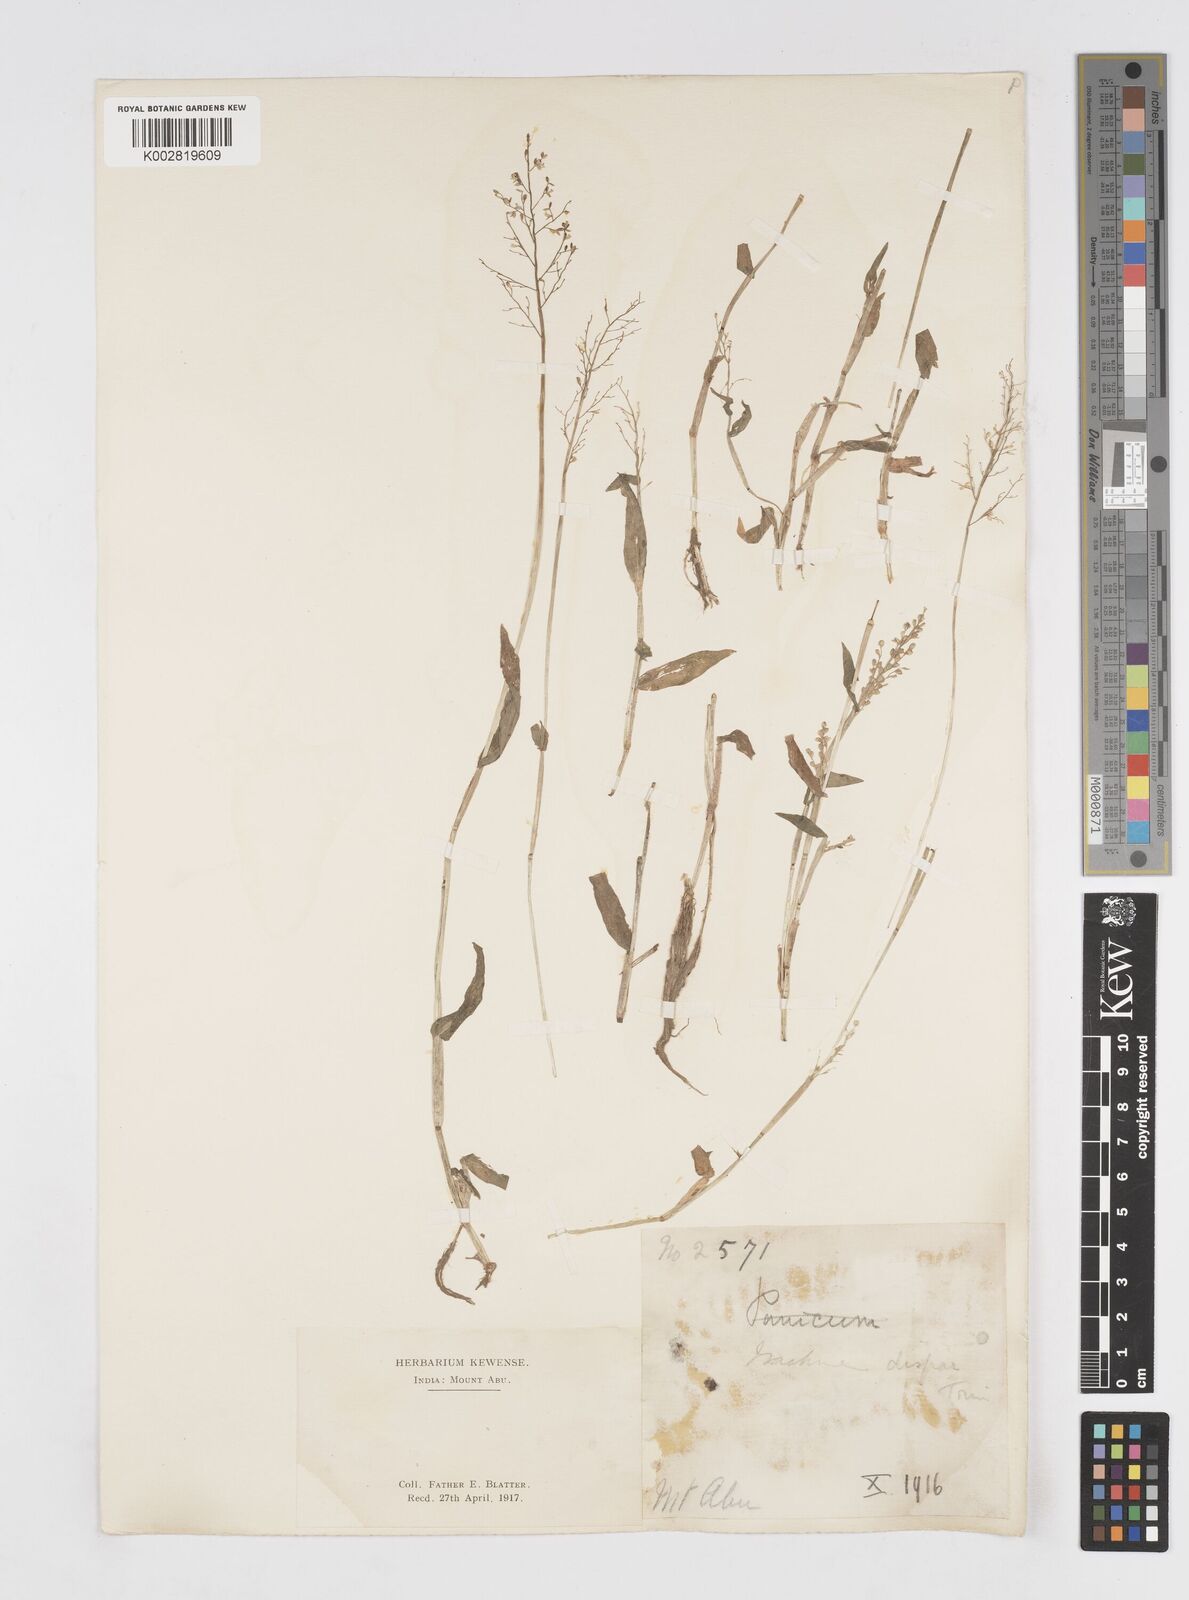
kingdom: Plantae
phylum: Tracheophyta
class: Liliopsida
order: Poales
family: Poaceae
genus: Isachne
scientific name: Isachne globosa
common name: Swamp millet
